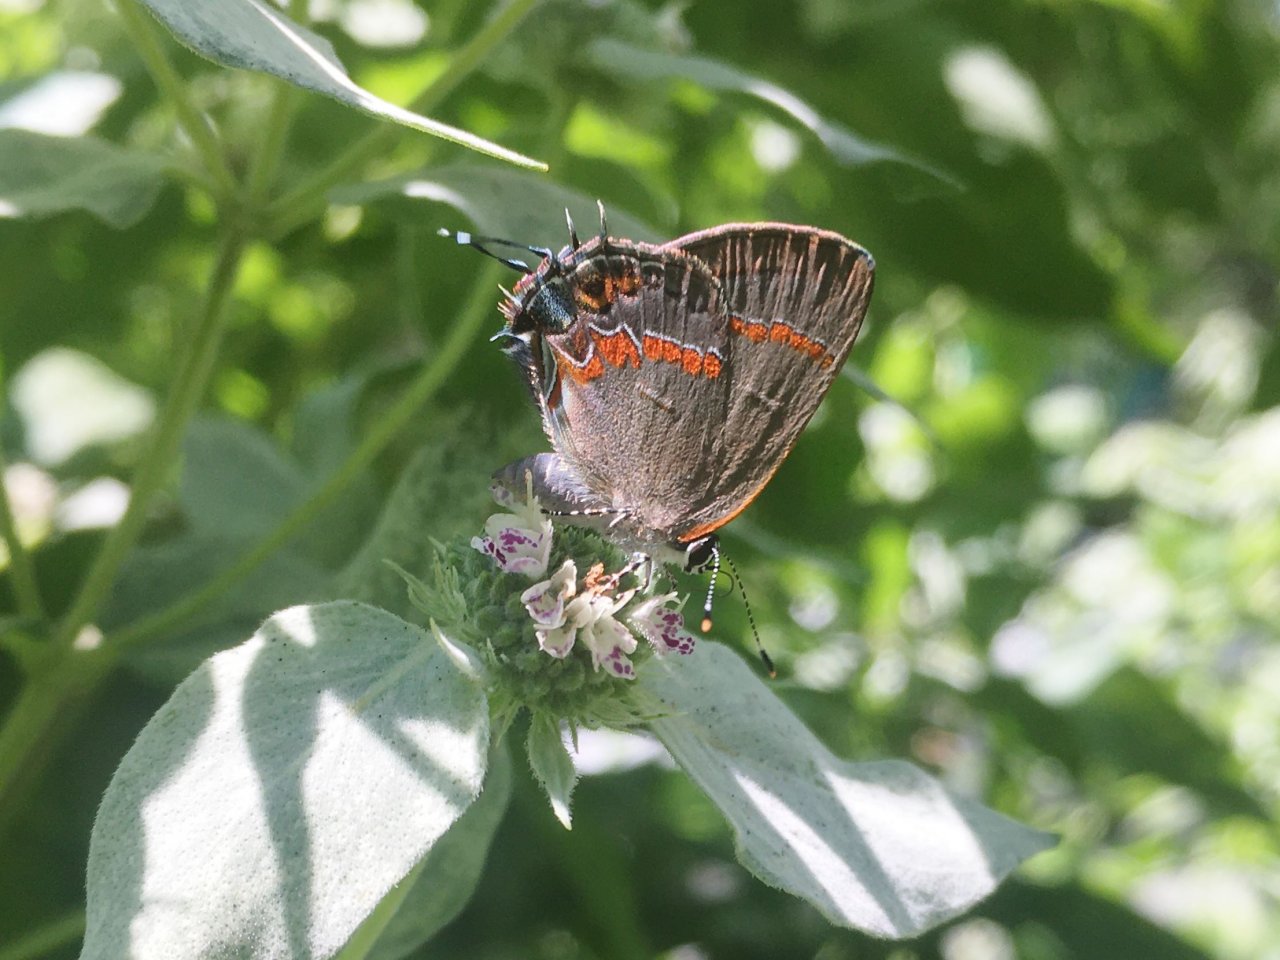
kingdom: Animalia
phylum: Arthropoda
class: Insecta
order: Lepidoptera
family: Lycaenidae
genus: Calycopis
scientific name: Calycopis cecrops
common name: Red-banded Hairstreak
